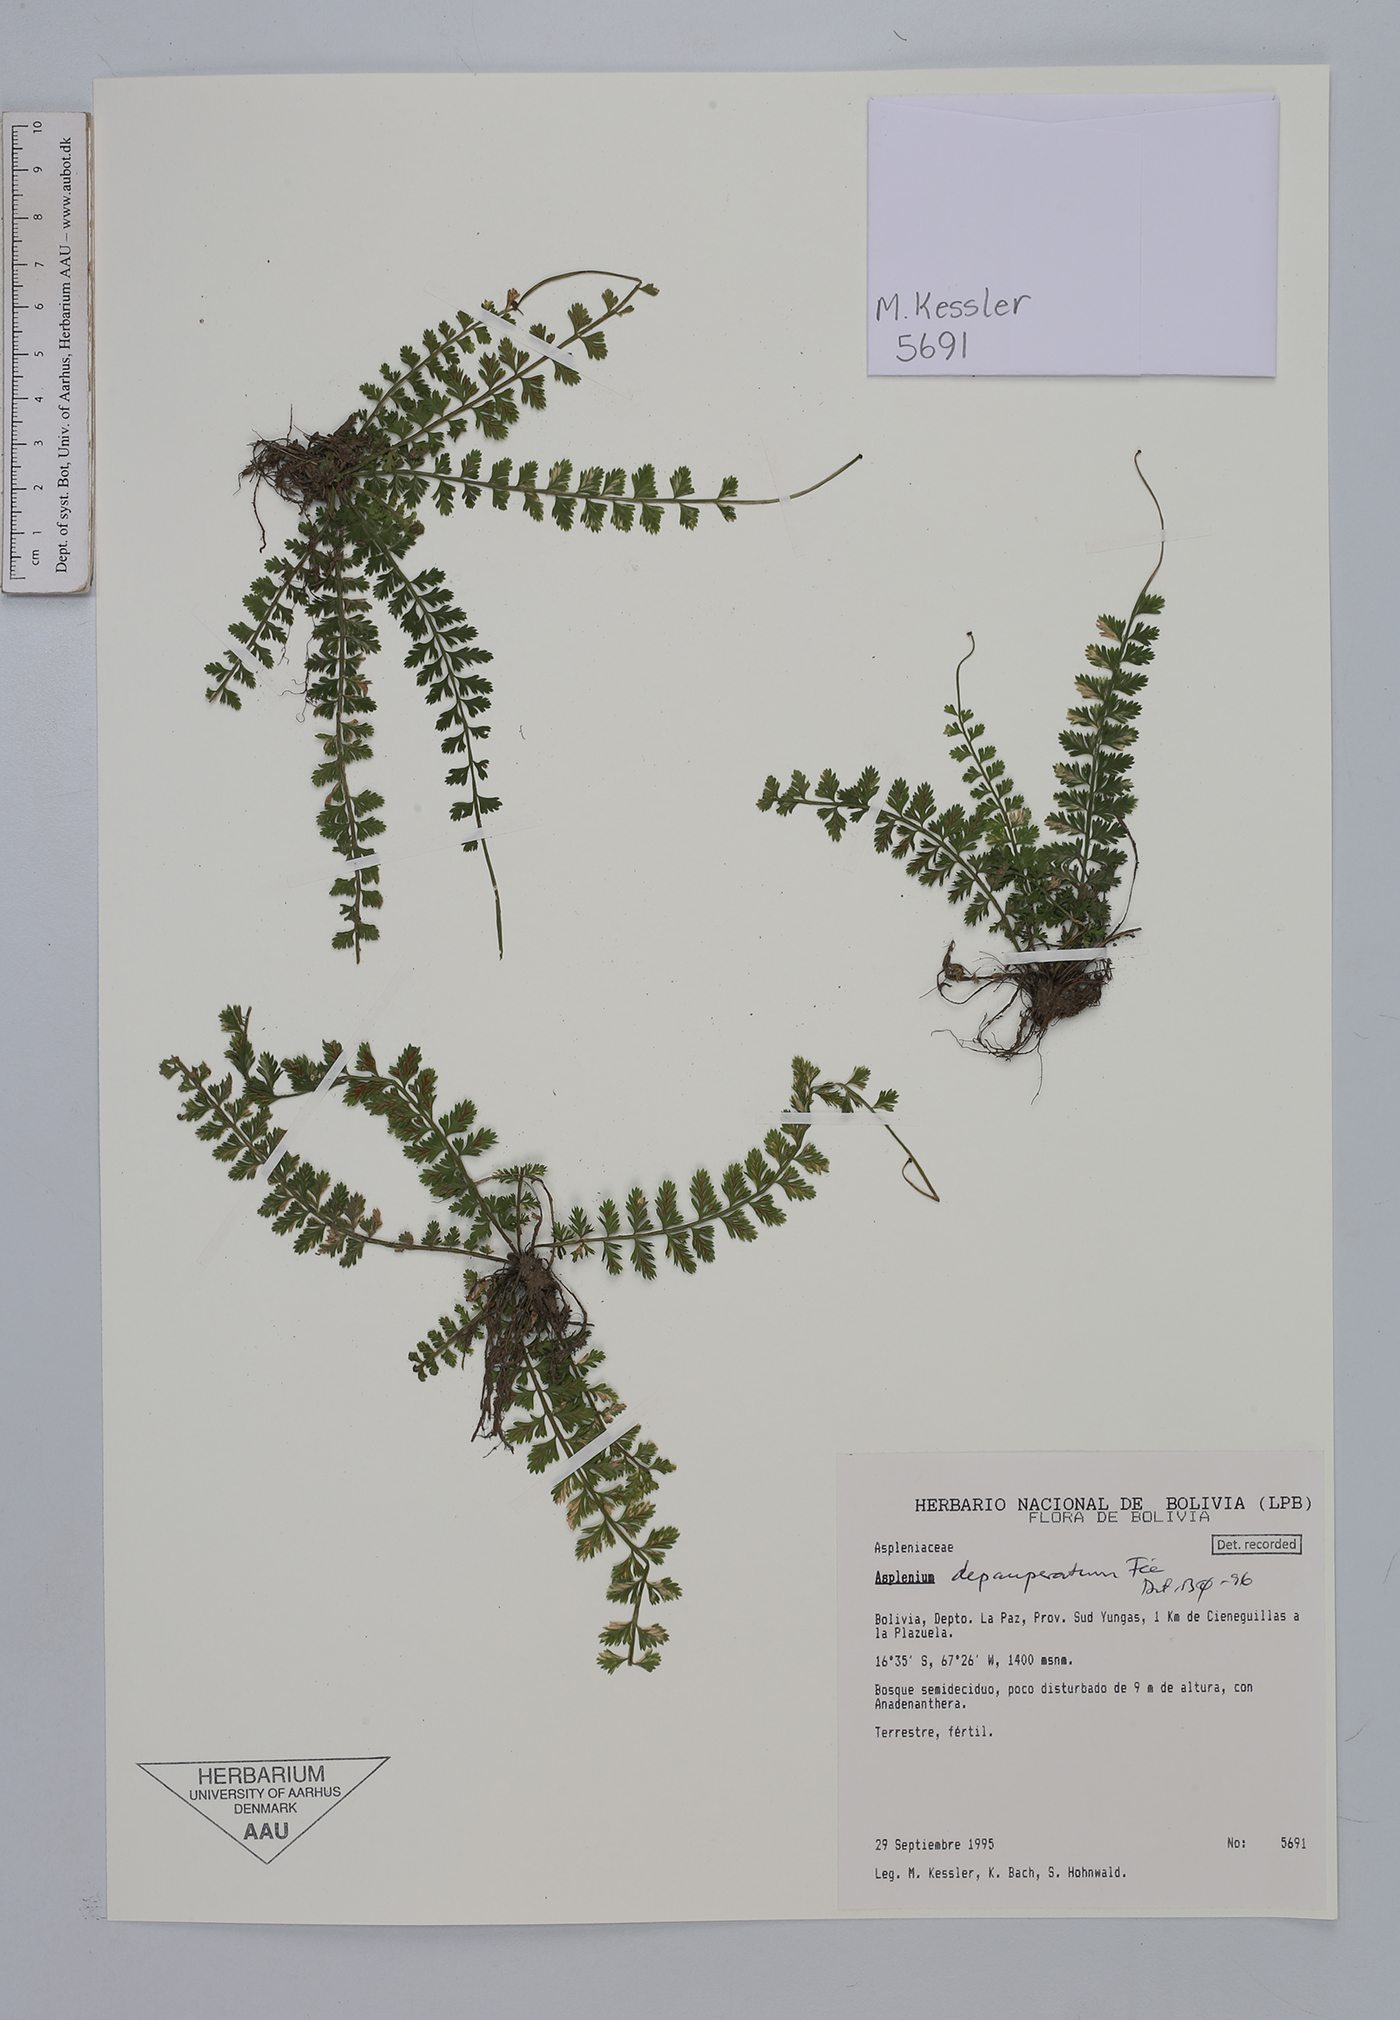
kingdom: Plantae
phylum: Tracheophyta
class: Polypodiopsida
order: Polypodiales
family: Aspleniaceae
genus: Asplenium
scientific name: Asplenium depauperatum
